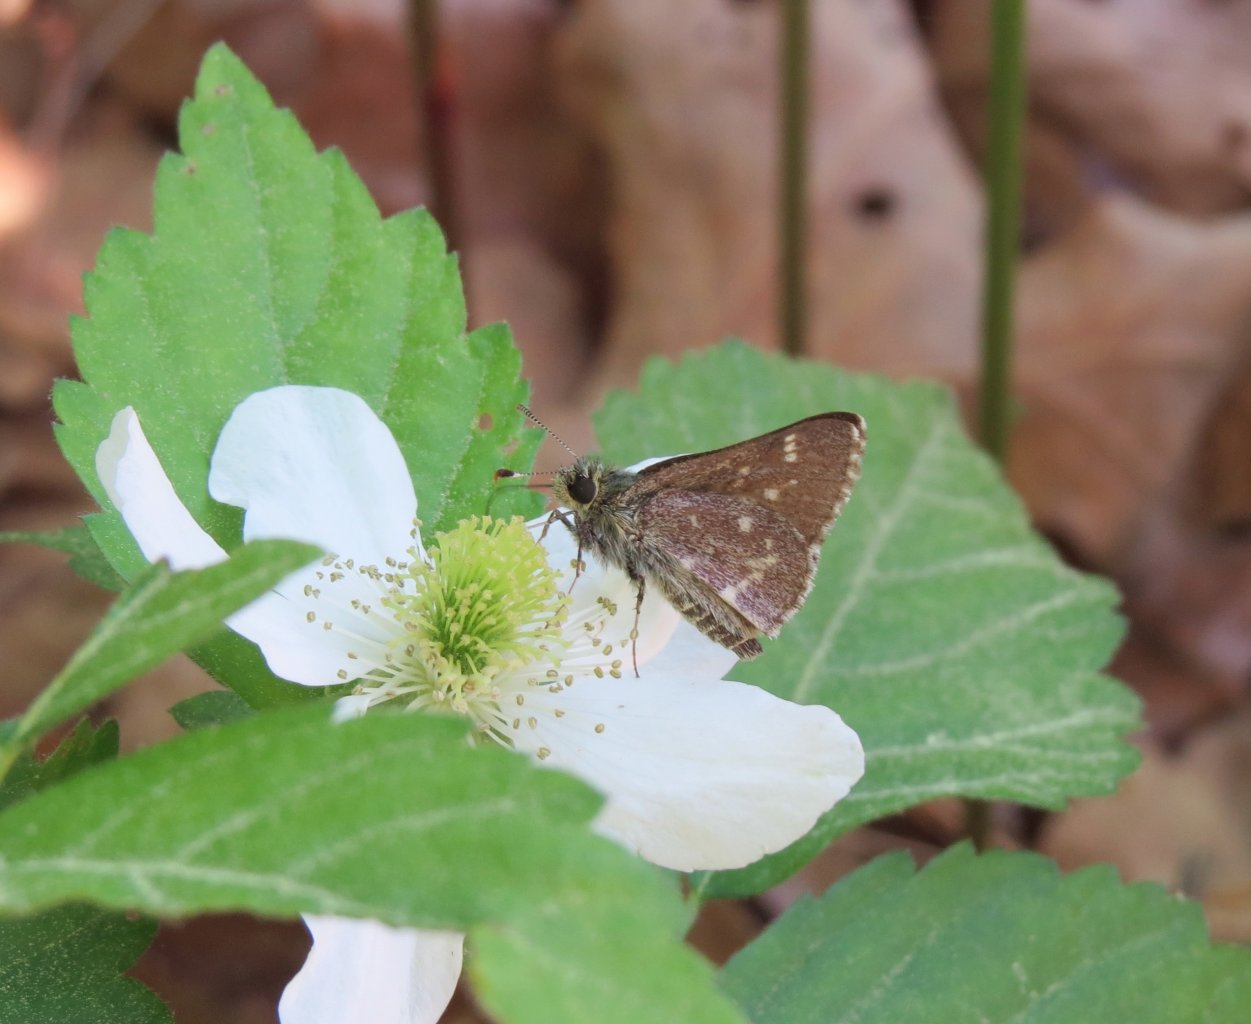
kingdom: Animalia
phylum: Arthropoda
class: Insecta
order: Lepidoptera
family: Hesperiidae
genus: Mastor
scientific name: Mastor hegon
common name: Pepper and Salt Skipper
